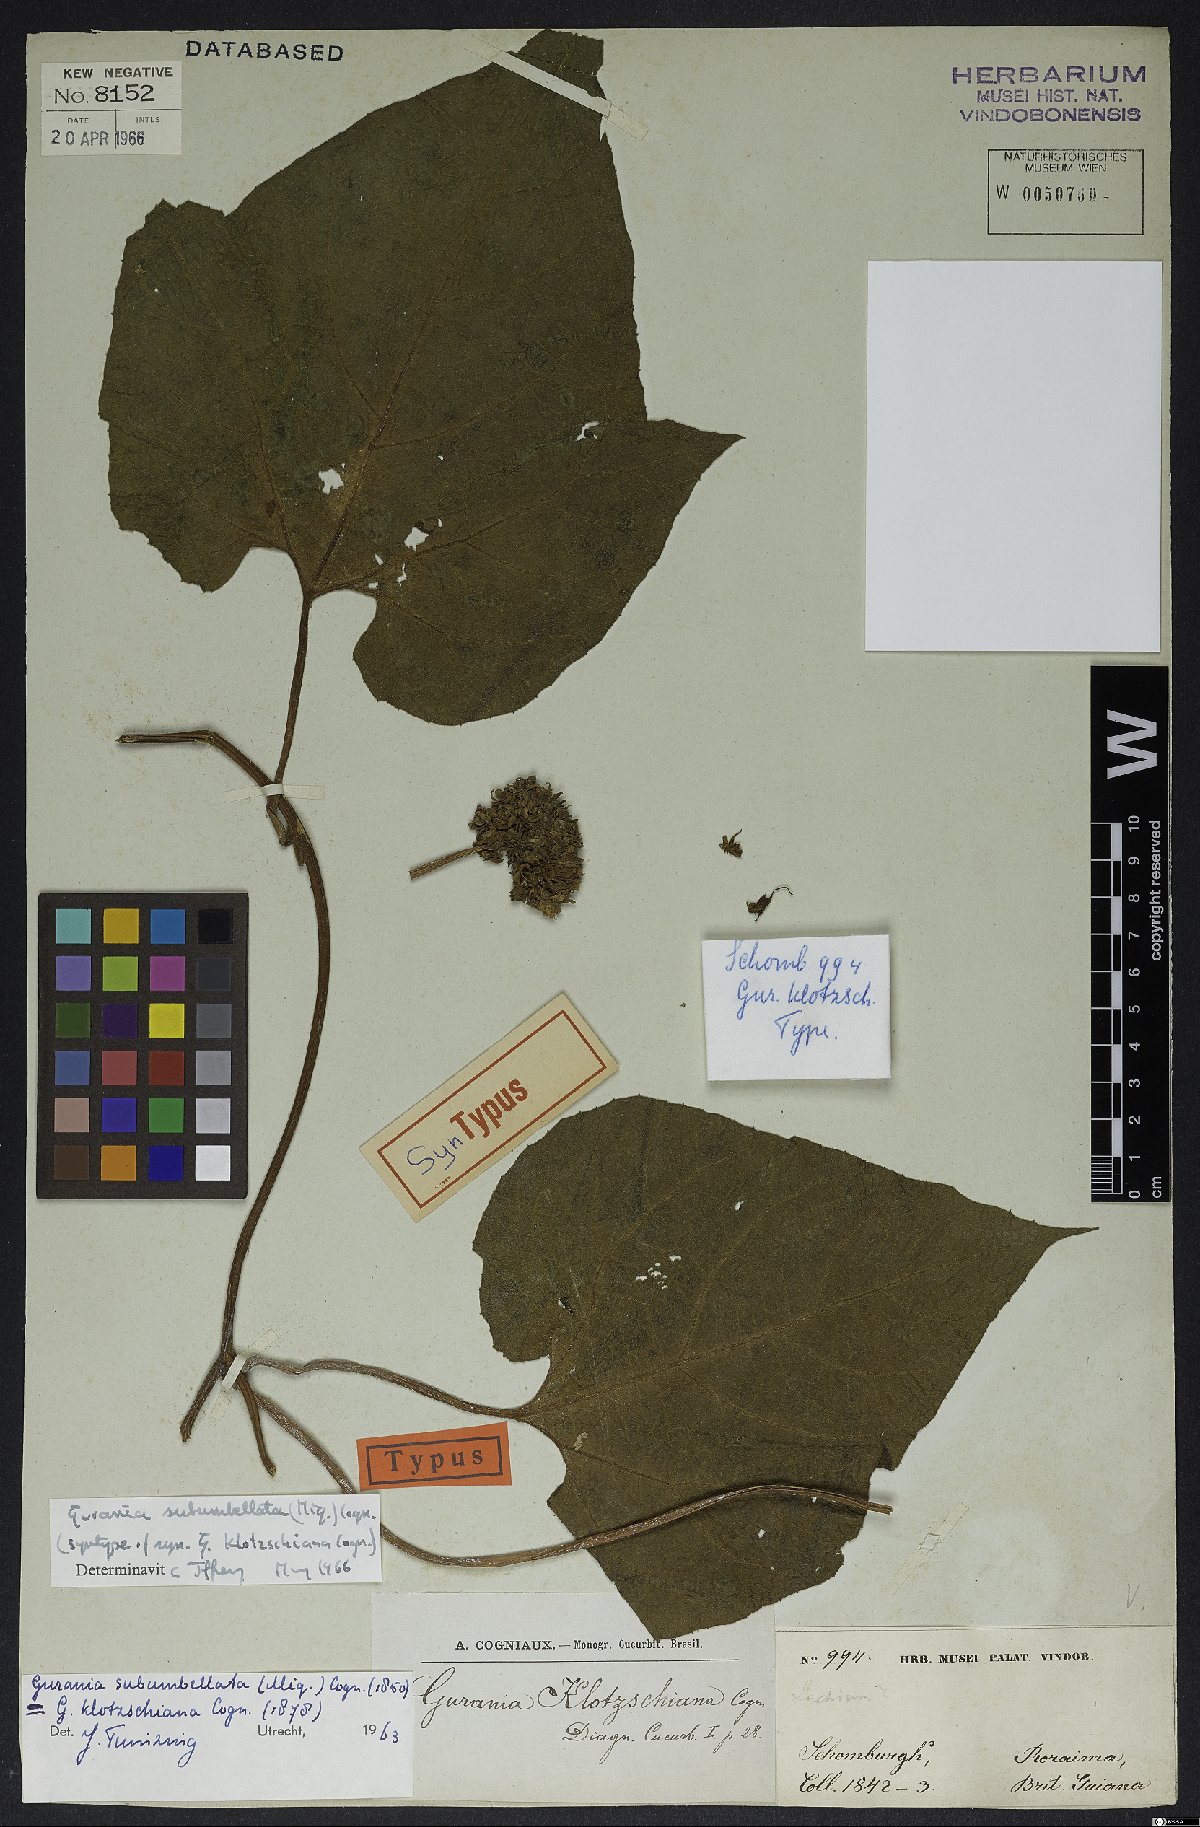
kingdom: Plantae
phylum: Tracheophyta
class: Magnoliopsida
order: Cucurbitales
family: Cucurbitaceae
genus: Gurania
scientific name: Gurania subumbellata
